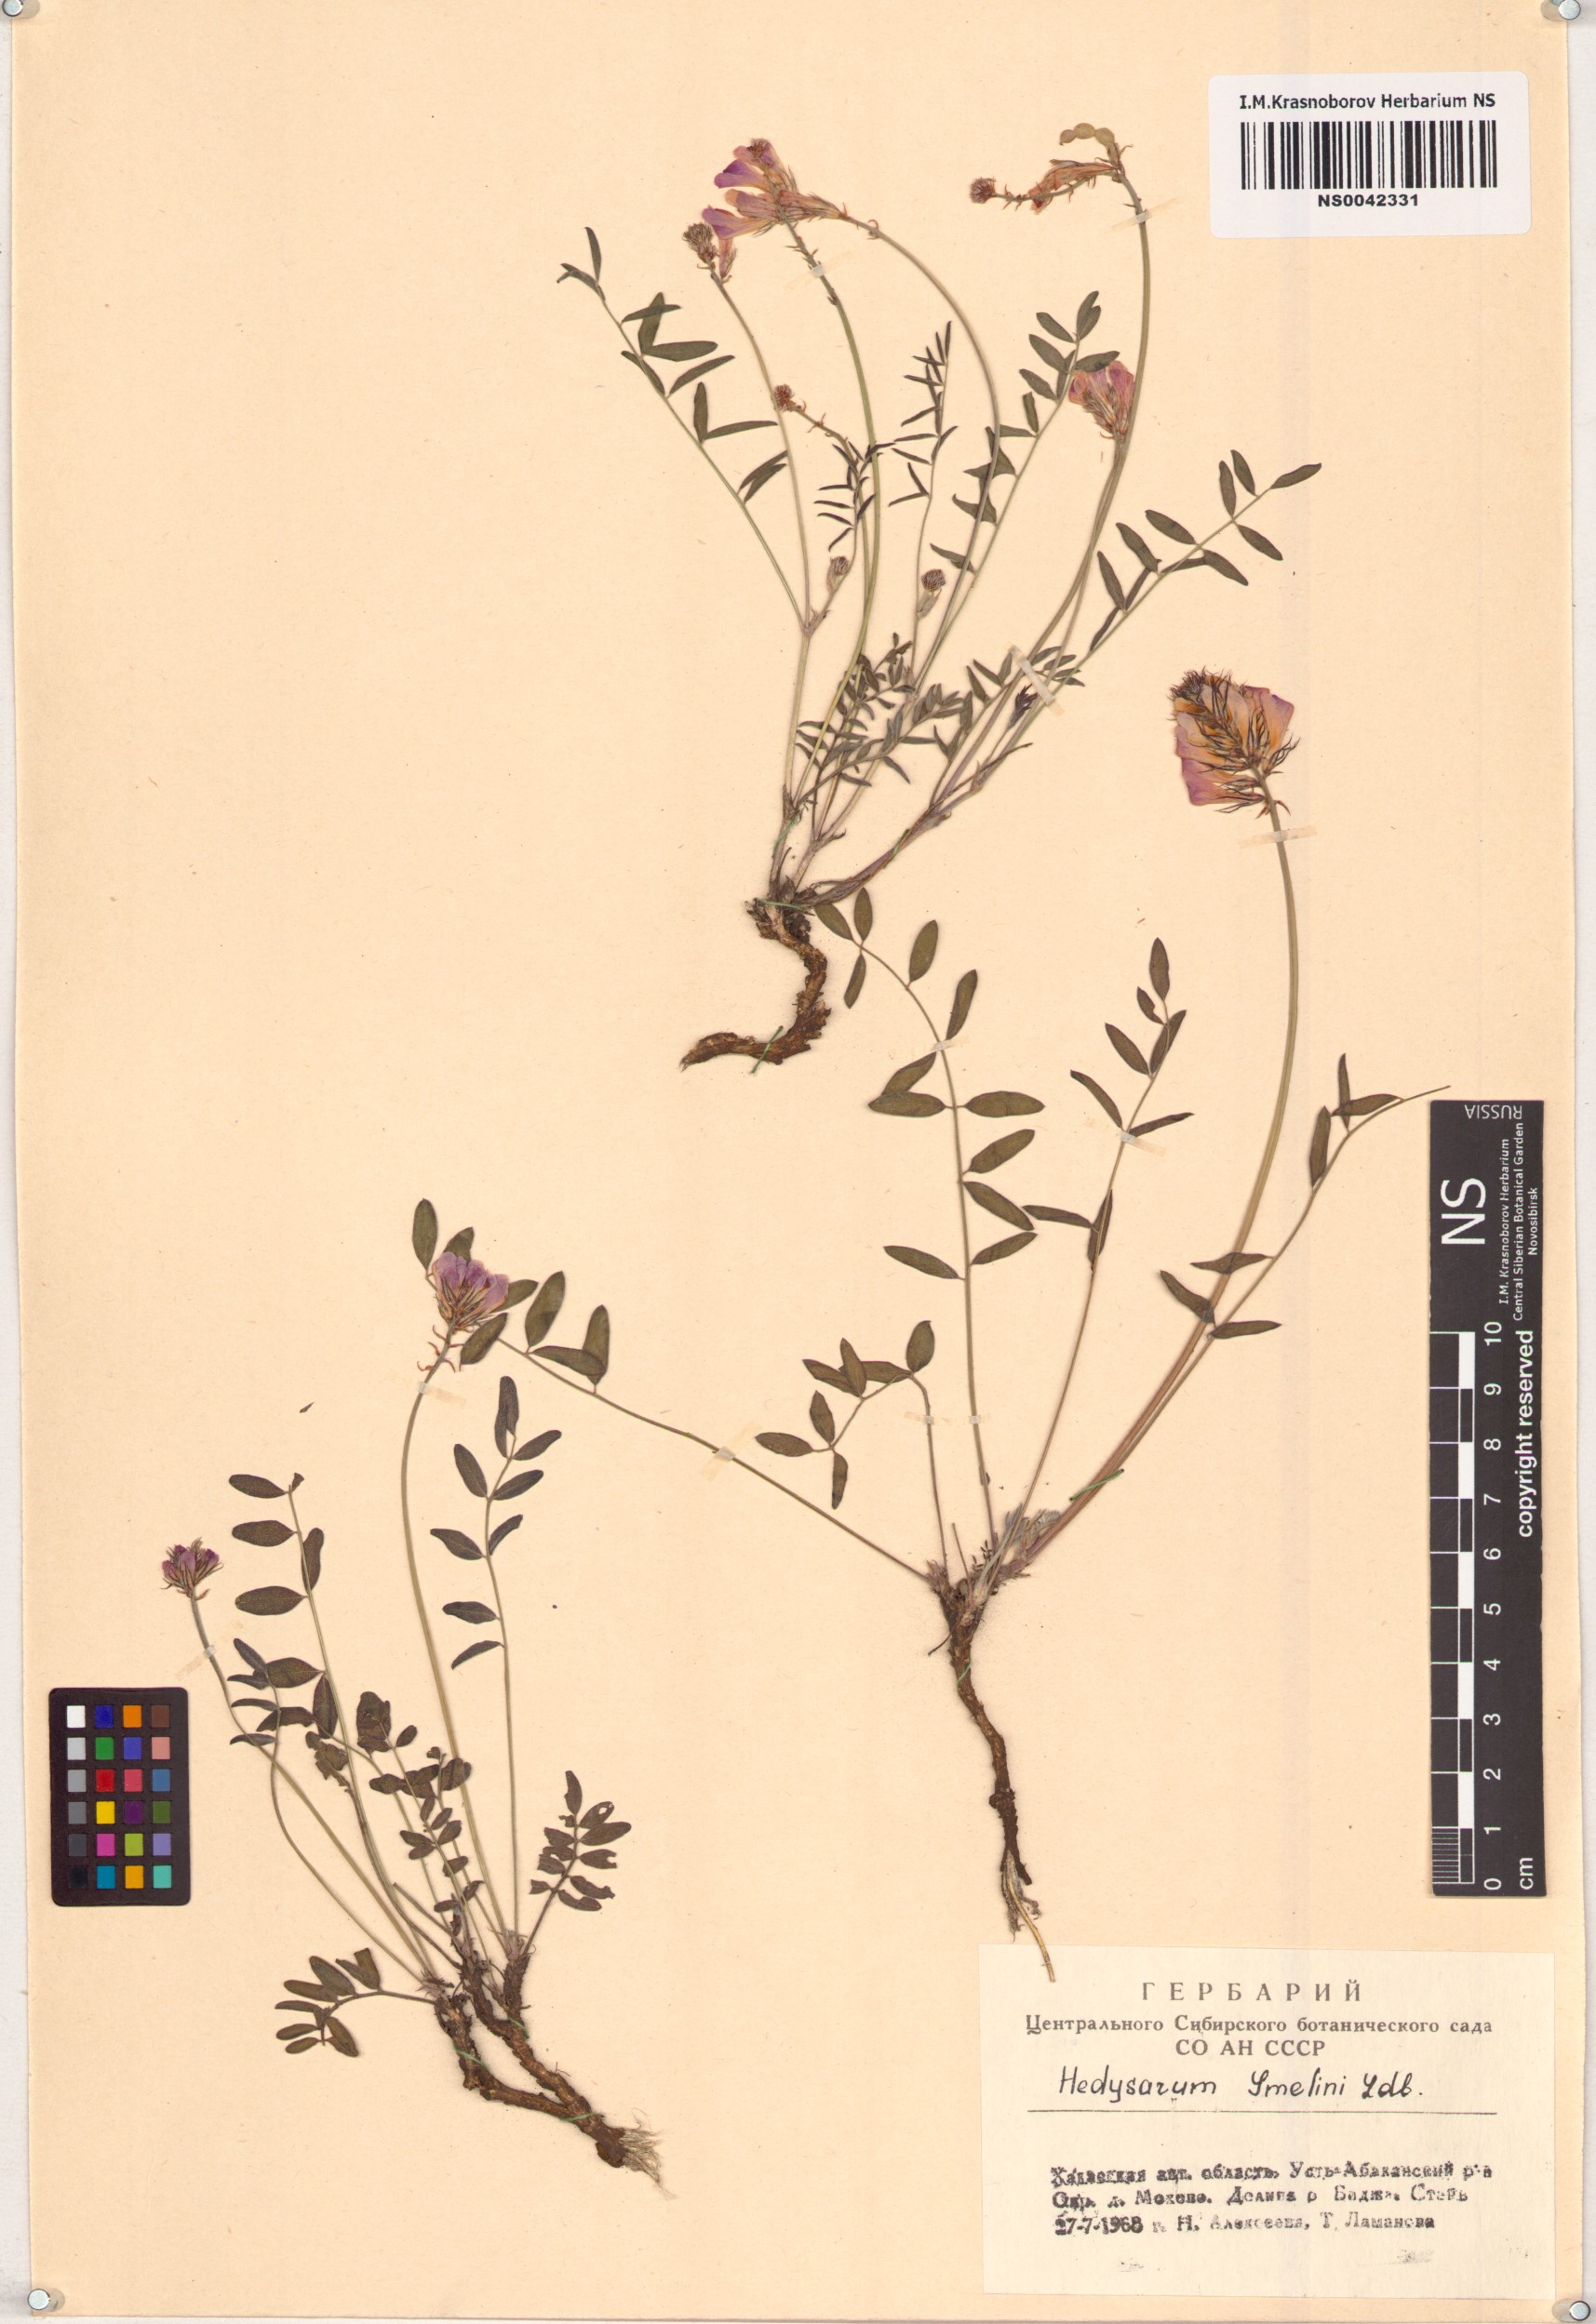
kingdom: Plantae
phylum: Tracheophyta
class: Magnoliopsida
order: Fabales
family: Fabaceae
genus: Hedysarum
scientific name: Hedysarum gmelinii
